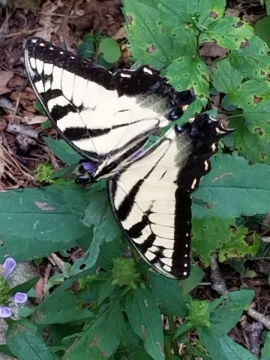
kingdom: Animalia
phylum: Arthropoda
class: Insecta
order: Lepidoptera
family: Papilionidae
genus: Pterourus
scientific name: Pterourus glaucus
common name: Eastern Tiger Swallowtail
